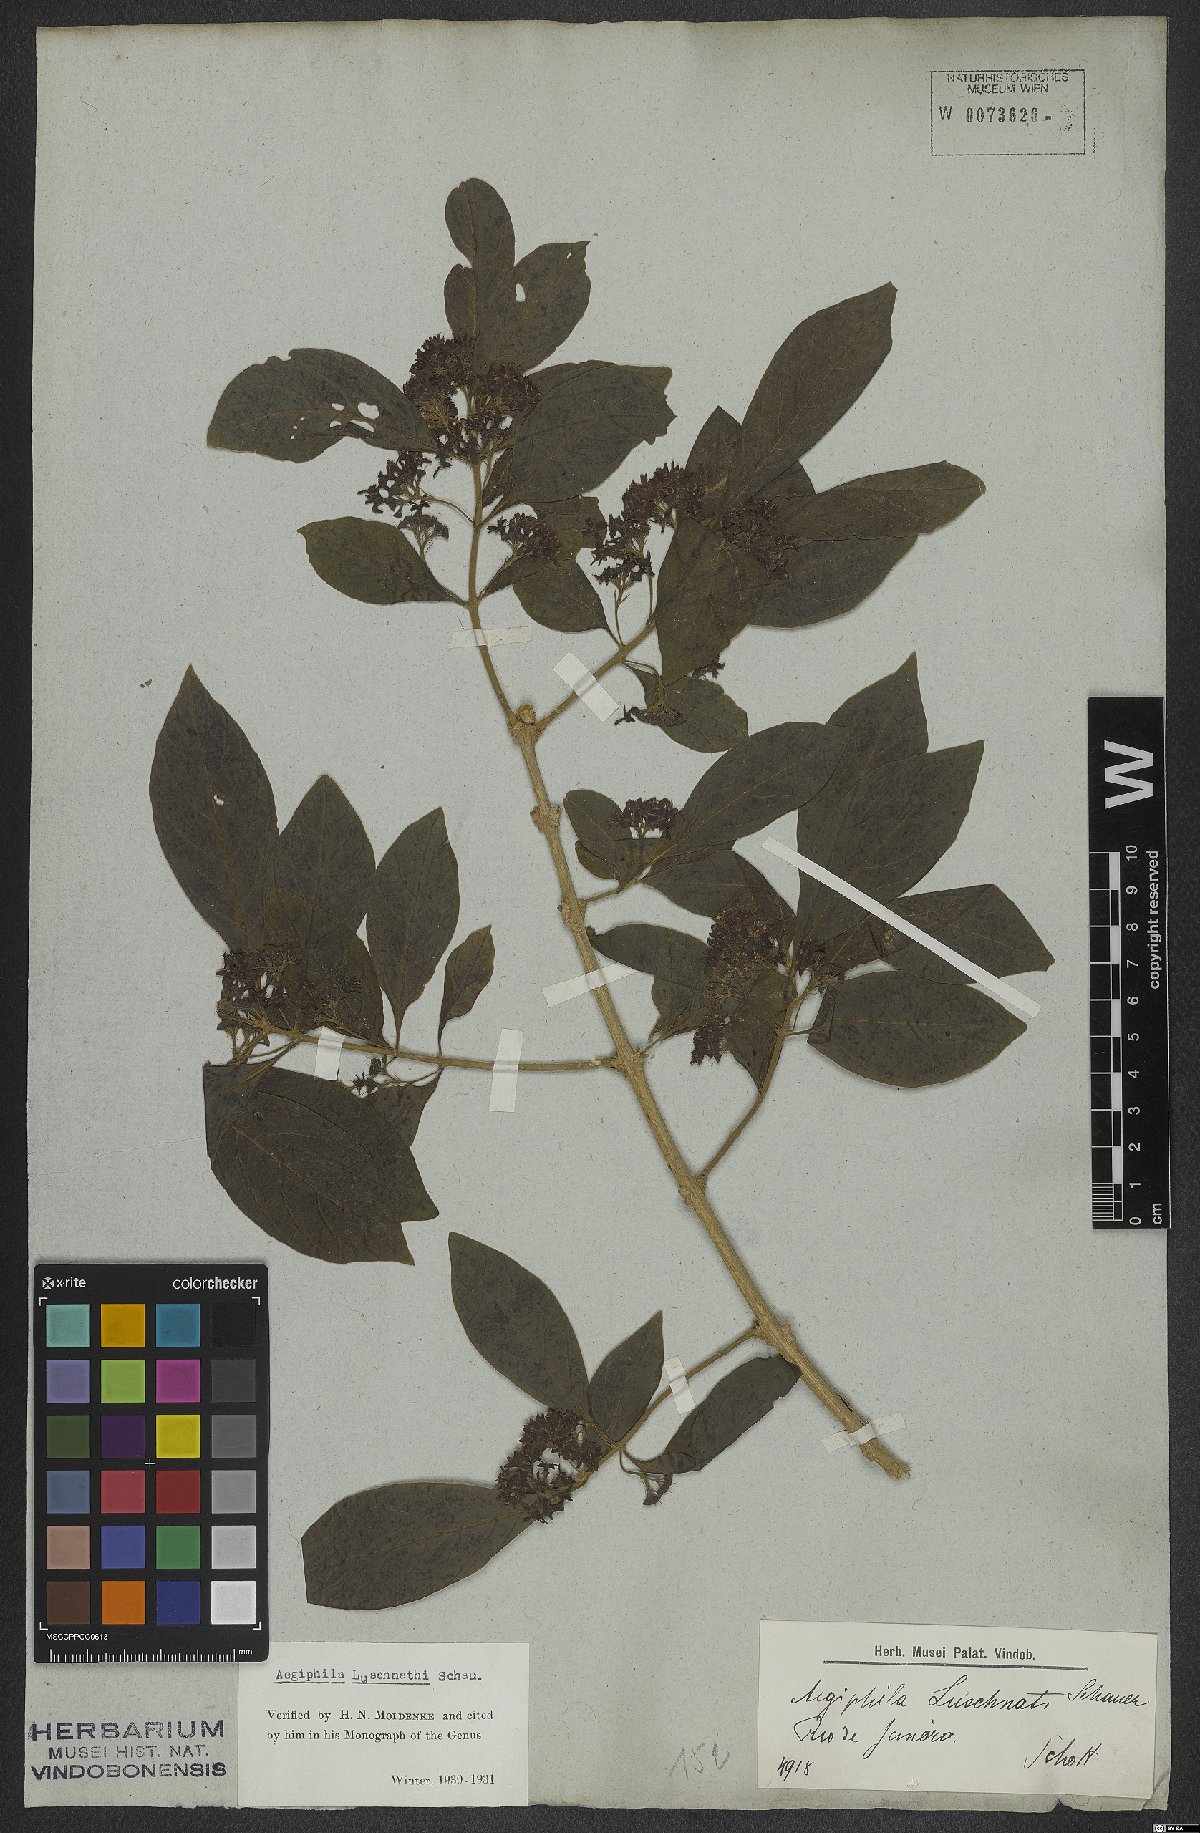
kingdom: Plantae
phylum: Tracheophyta
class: Magnoliopsida
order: Lamiales
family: Lamiaceae
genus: Aegiphila
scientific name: Aegiphila luschnathii
